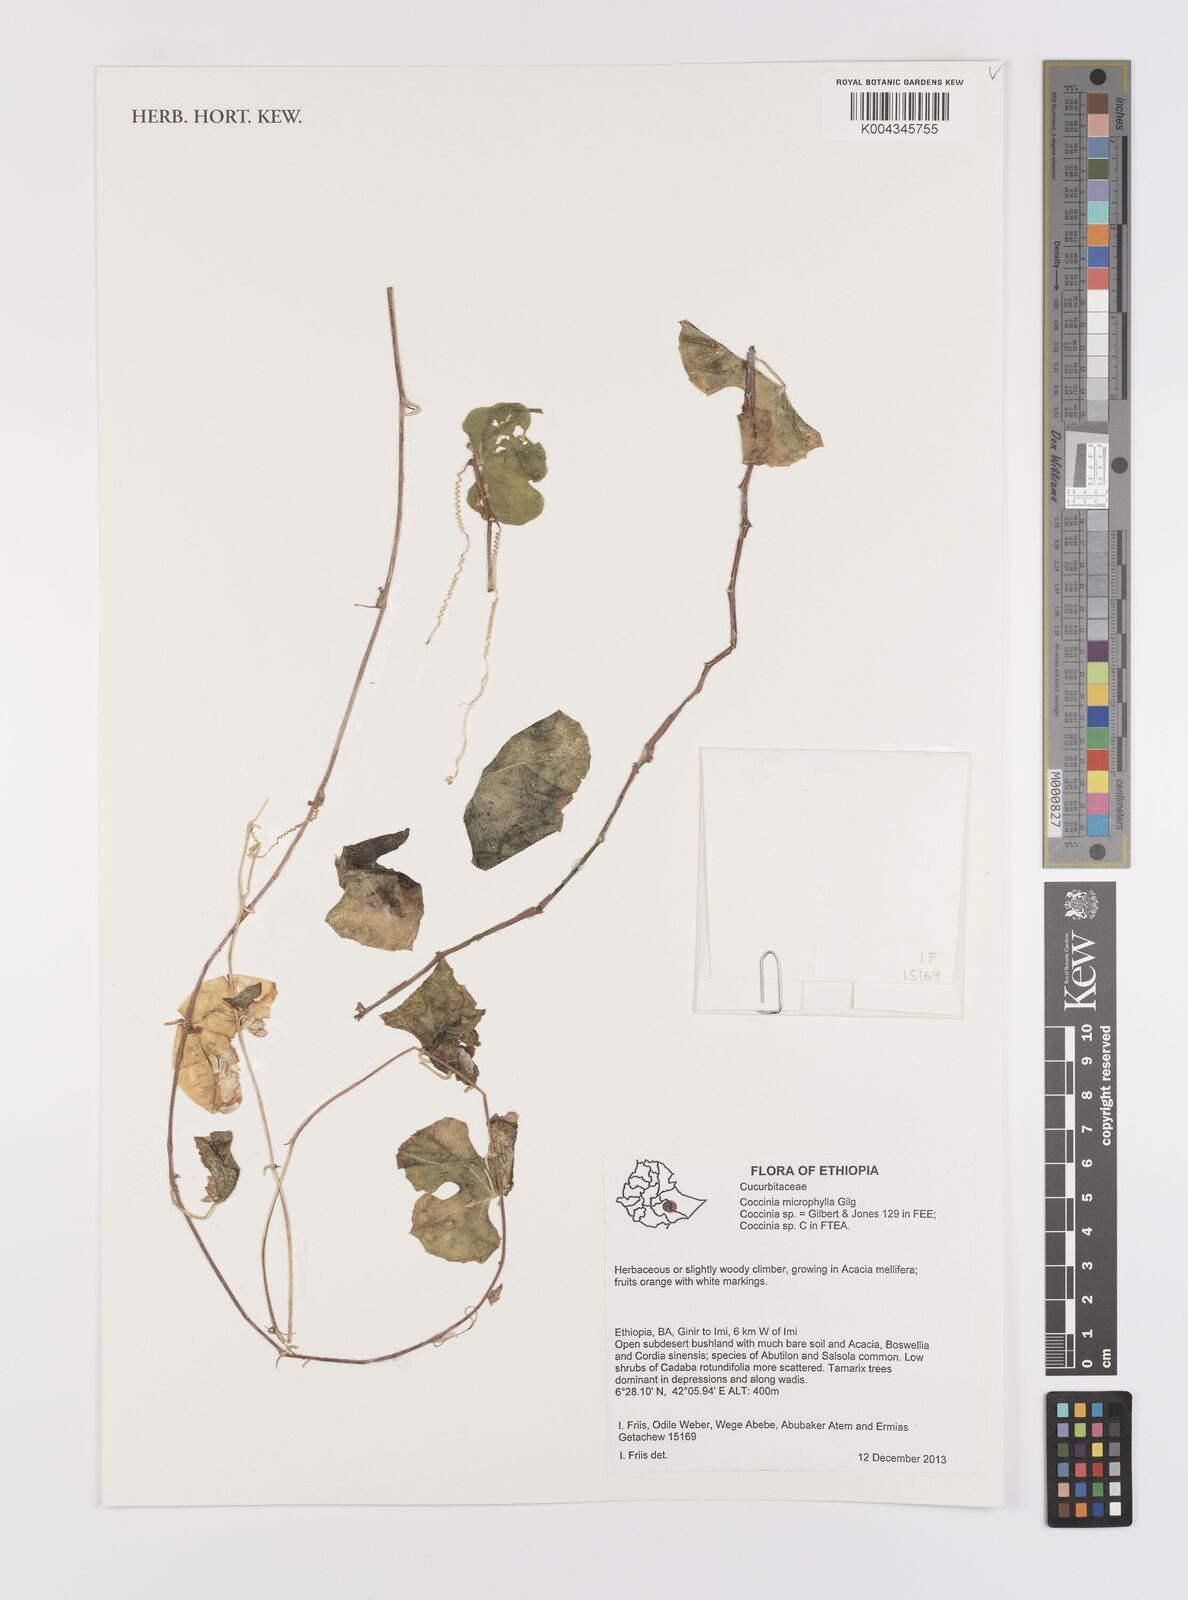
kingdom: Plantae
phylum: Tracheophyta
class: Magnoliopsida
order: Cucurbitales
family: Cucurbitaceae
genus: Coccinia
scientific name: Coccinia microphylla
